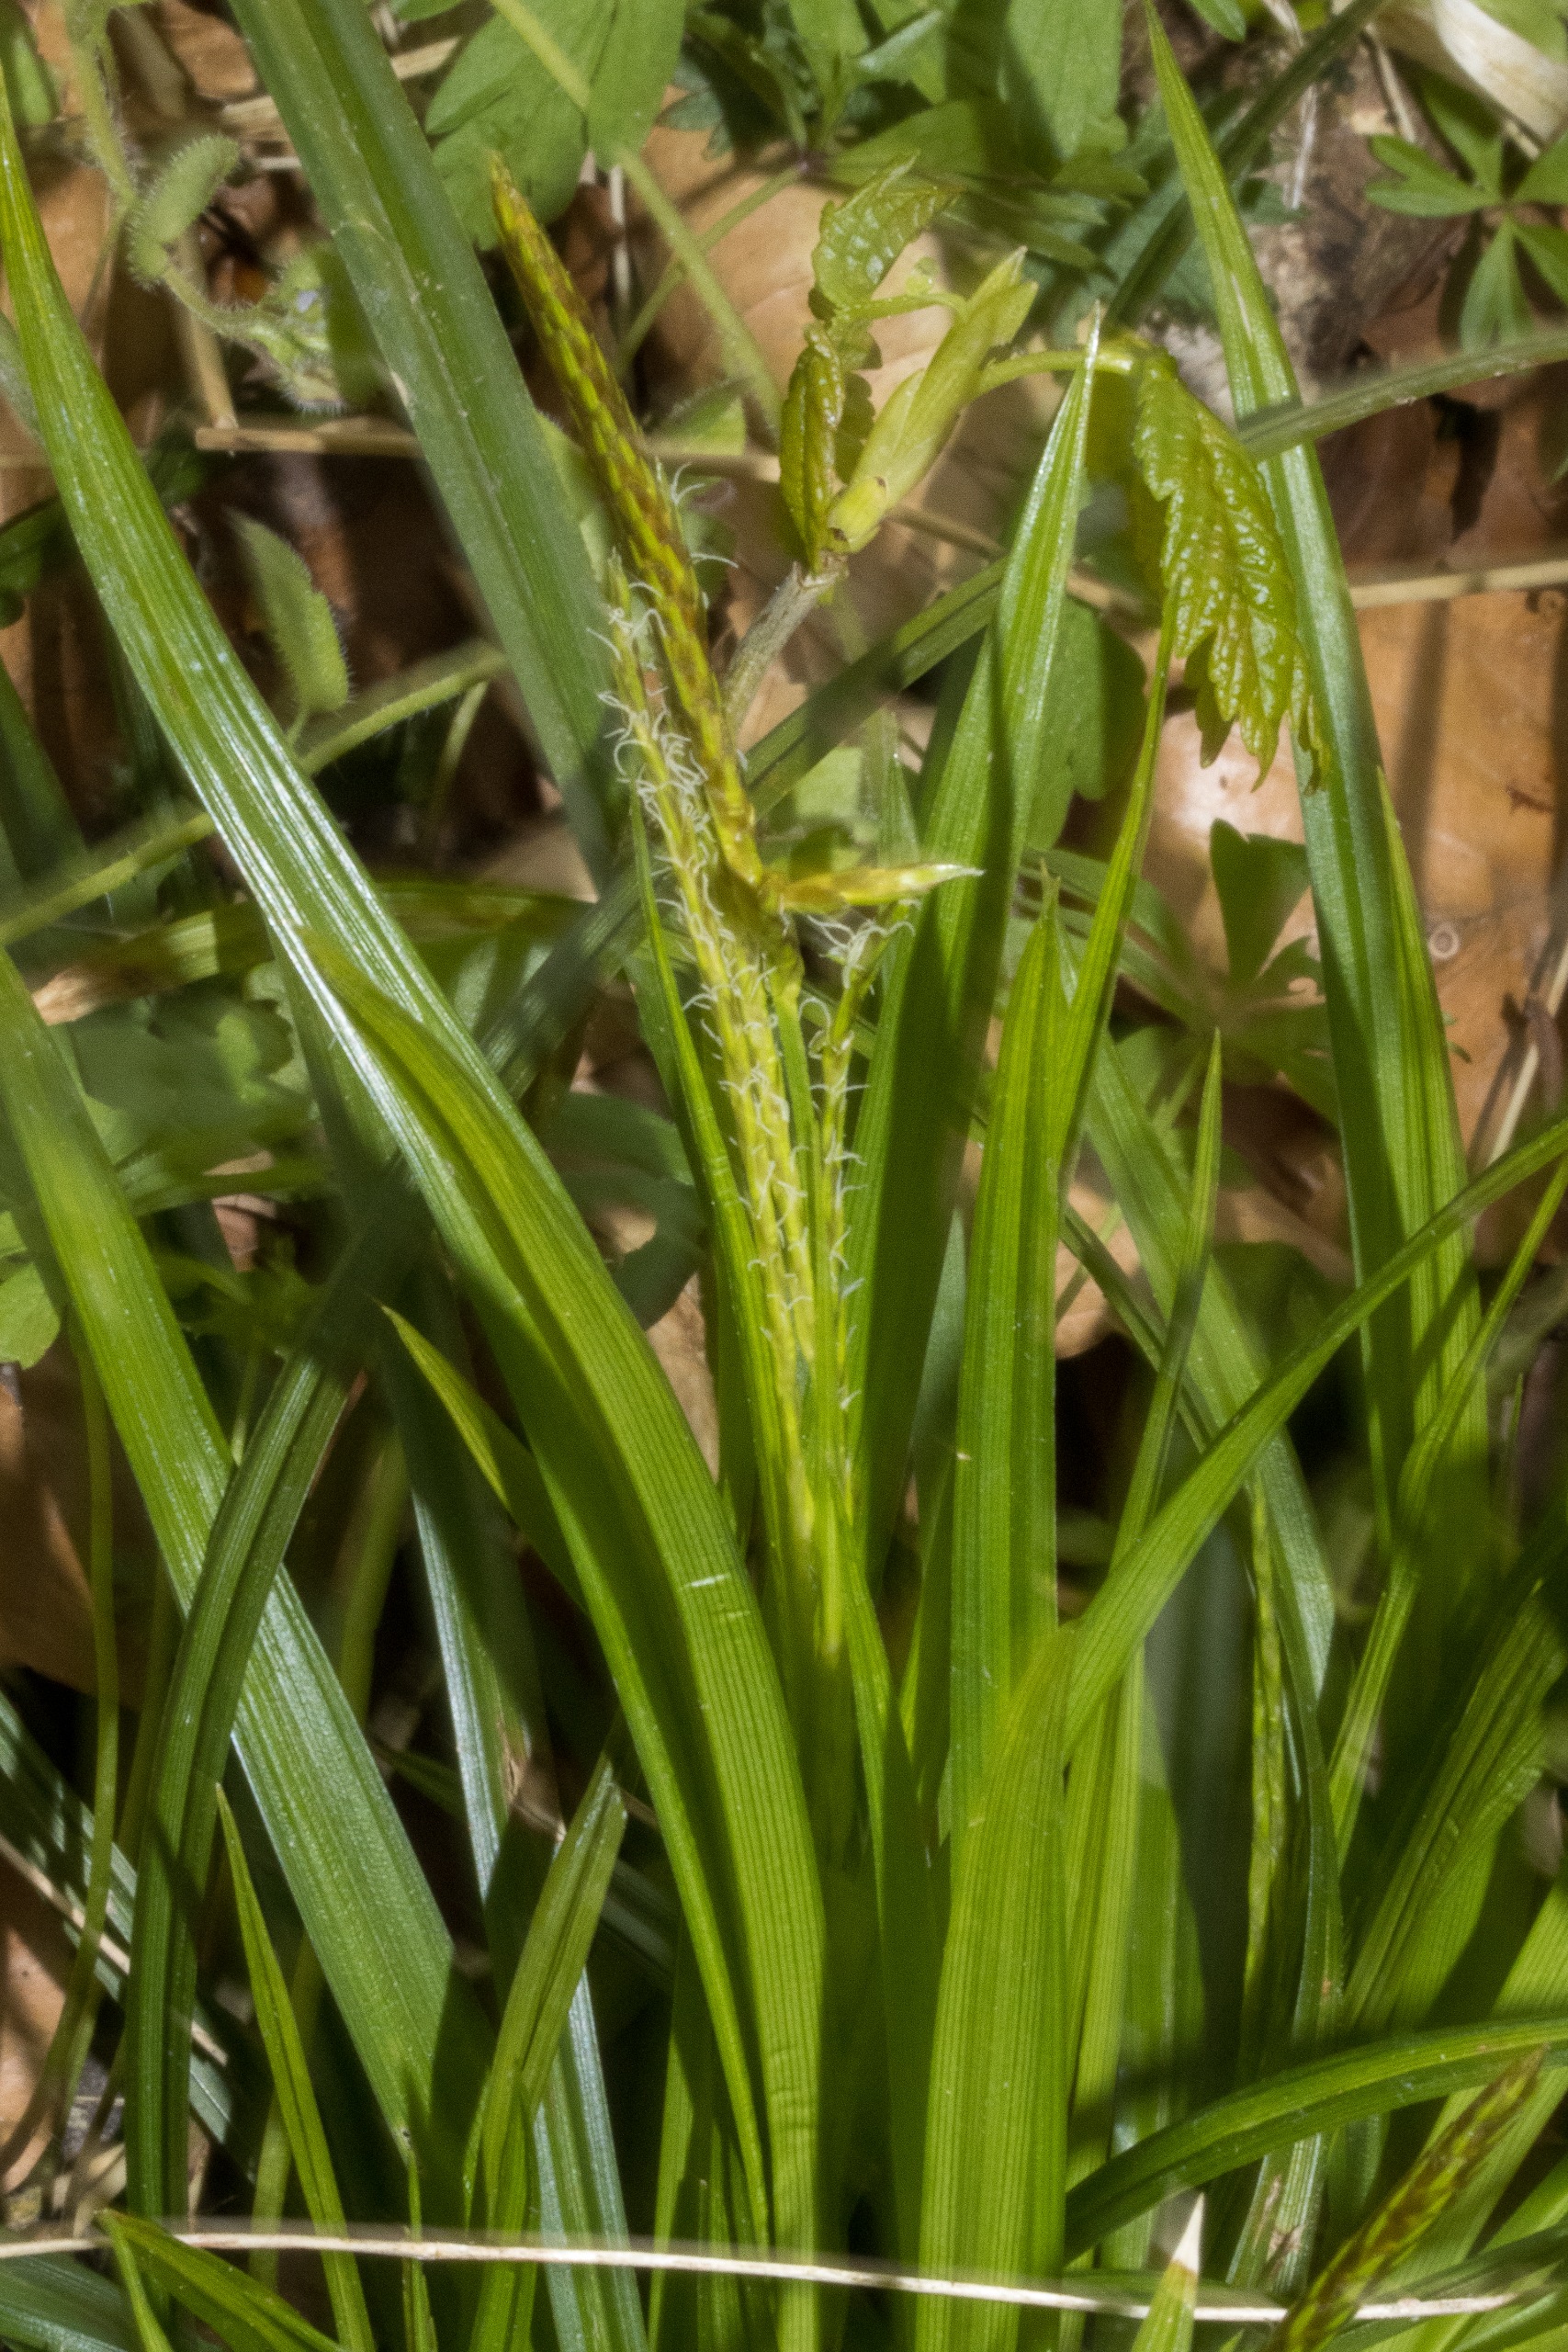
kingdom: Plantae
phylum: Tracheophyta
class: Liliopsida
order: Poales
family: Cyperaceae
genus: Carex
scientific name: Carex sylvatica
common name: Skov-star
